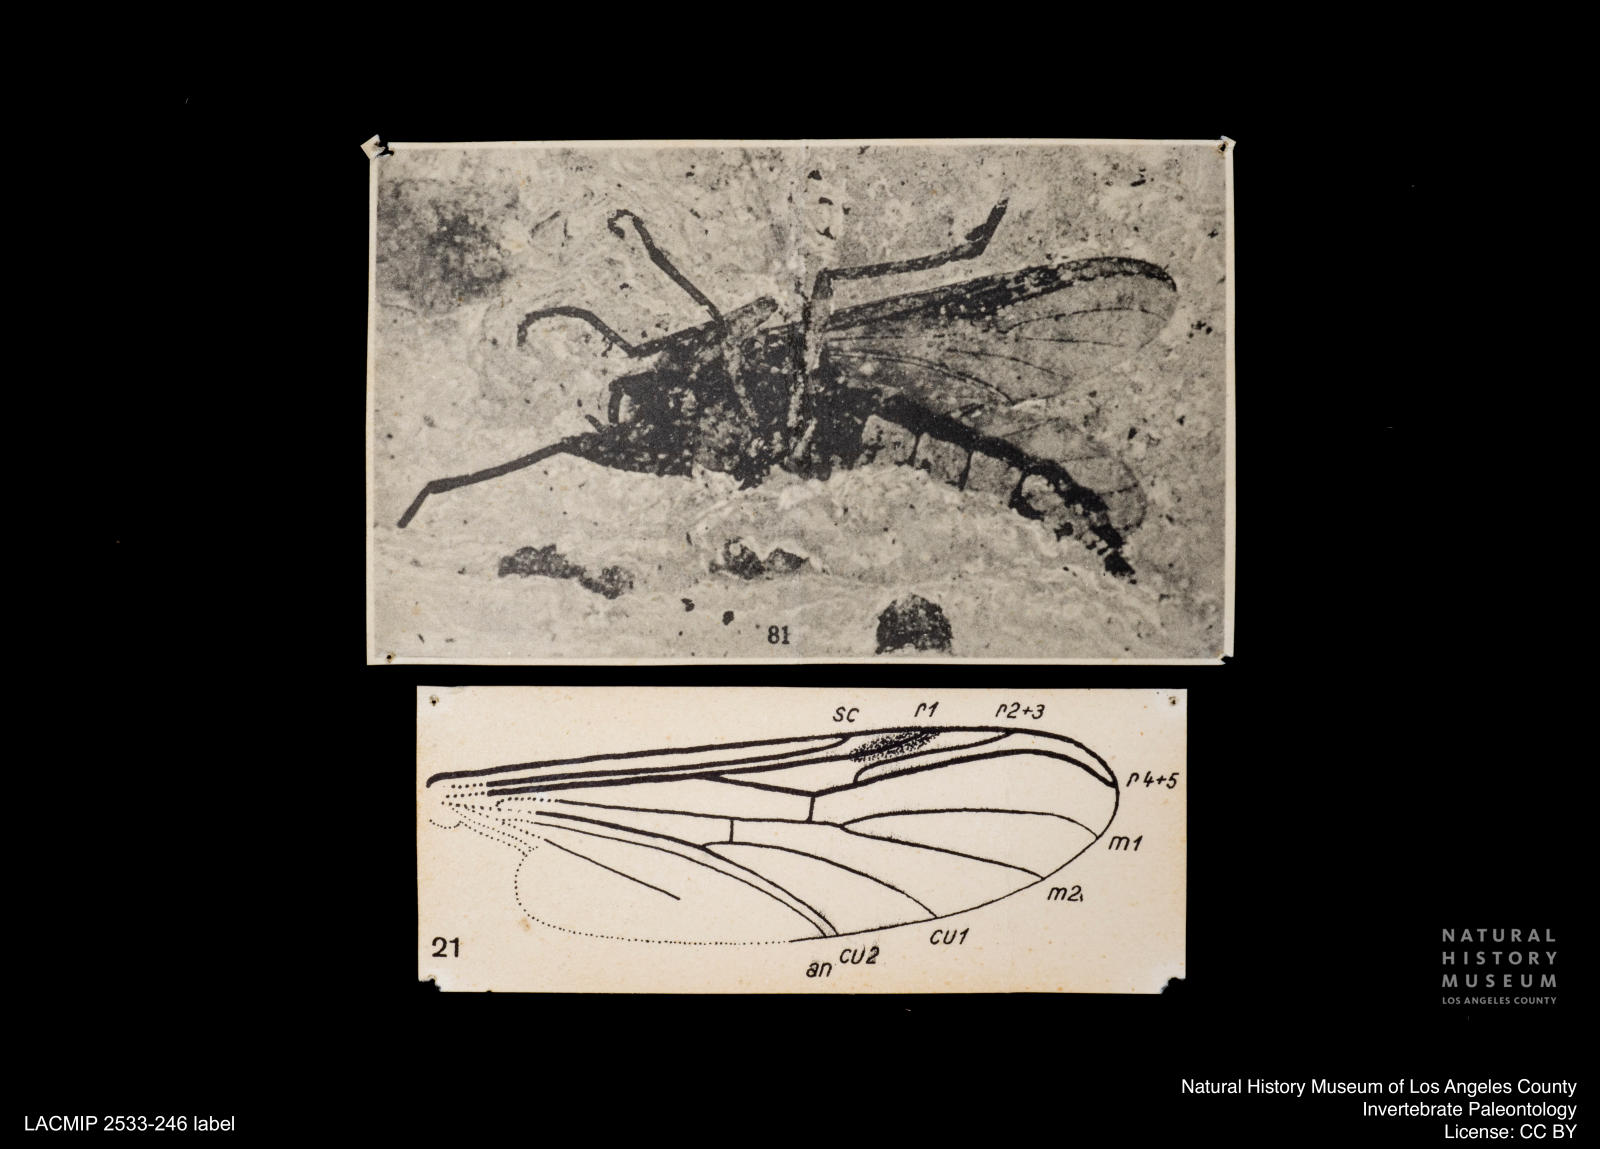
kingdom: Animalia
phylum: Arthropoda
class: Insecta
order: Diptera
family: Bibionidae
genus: Penthetria
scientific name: Penthetria
